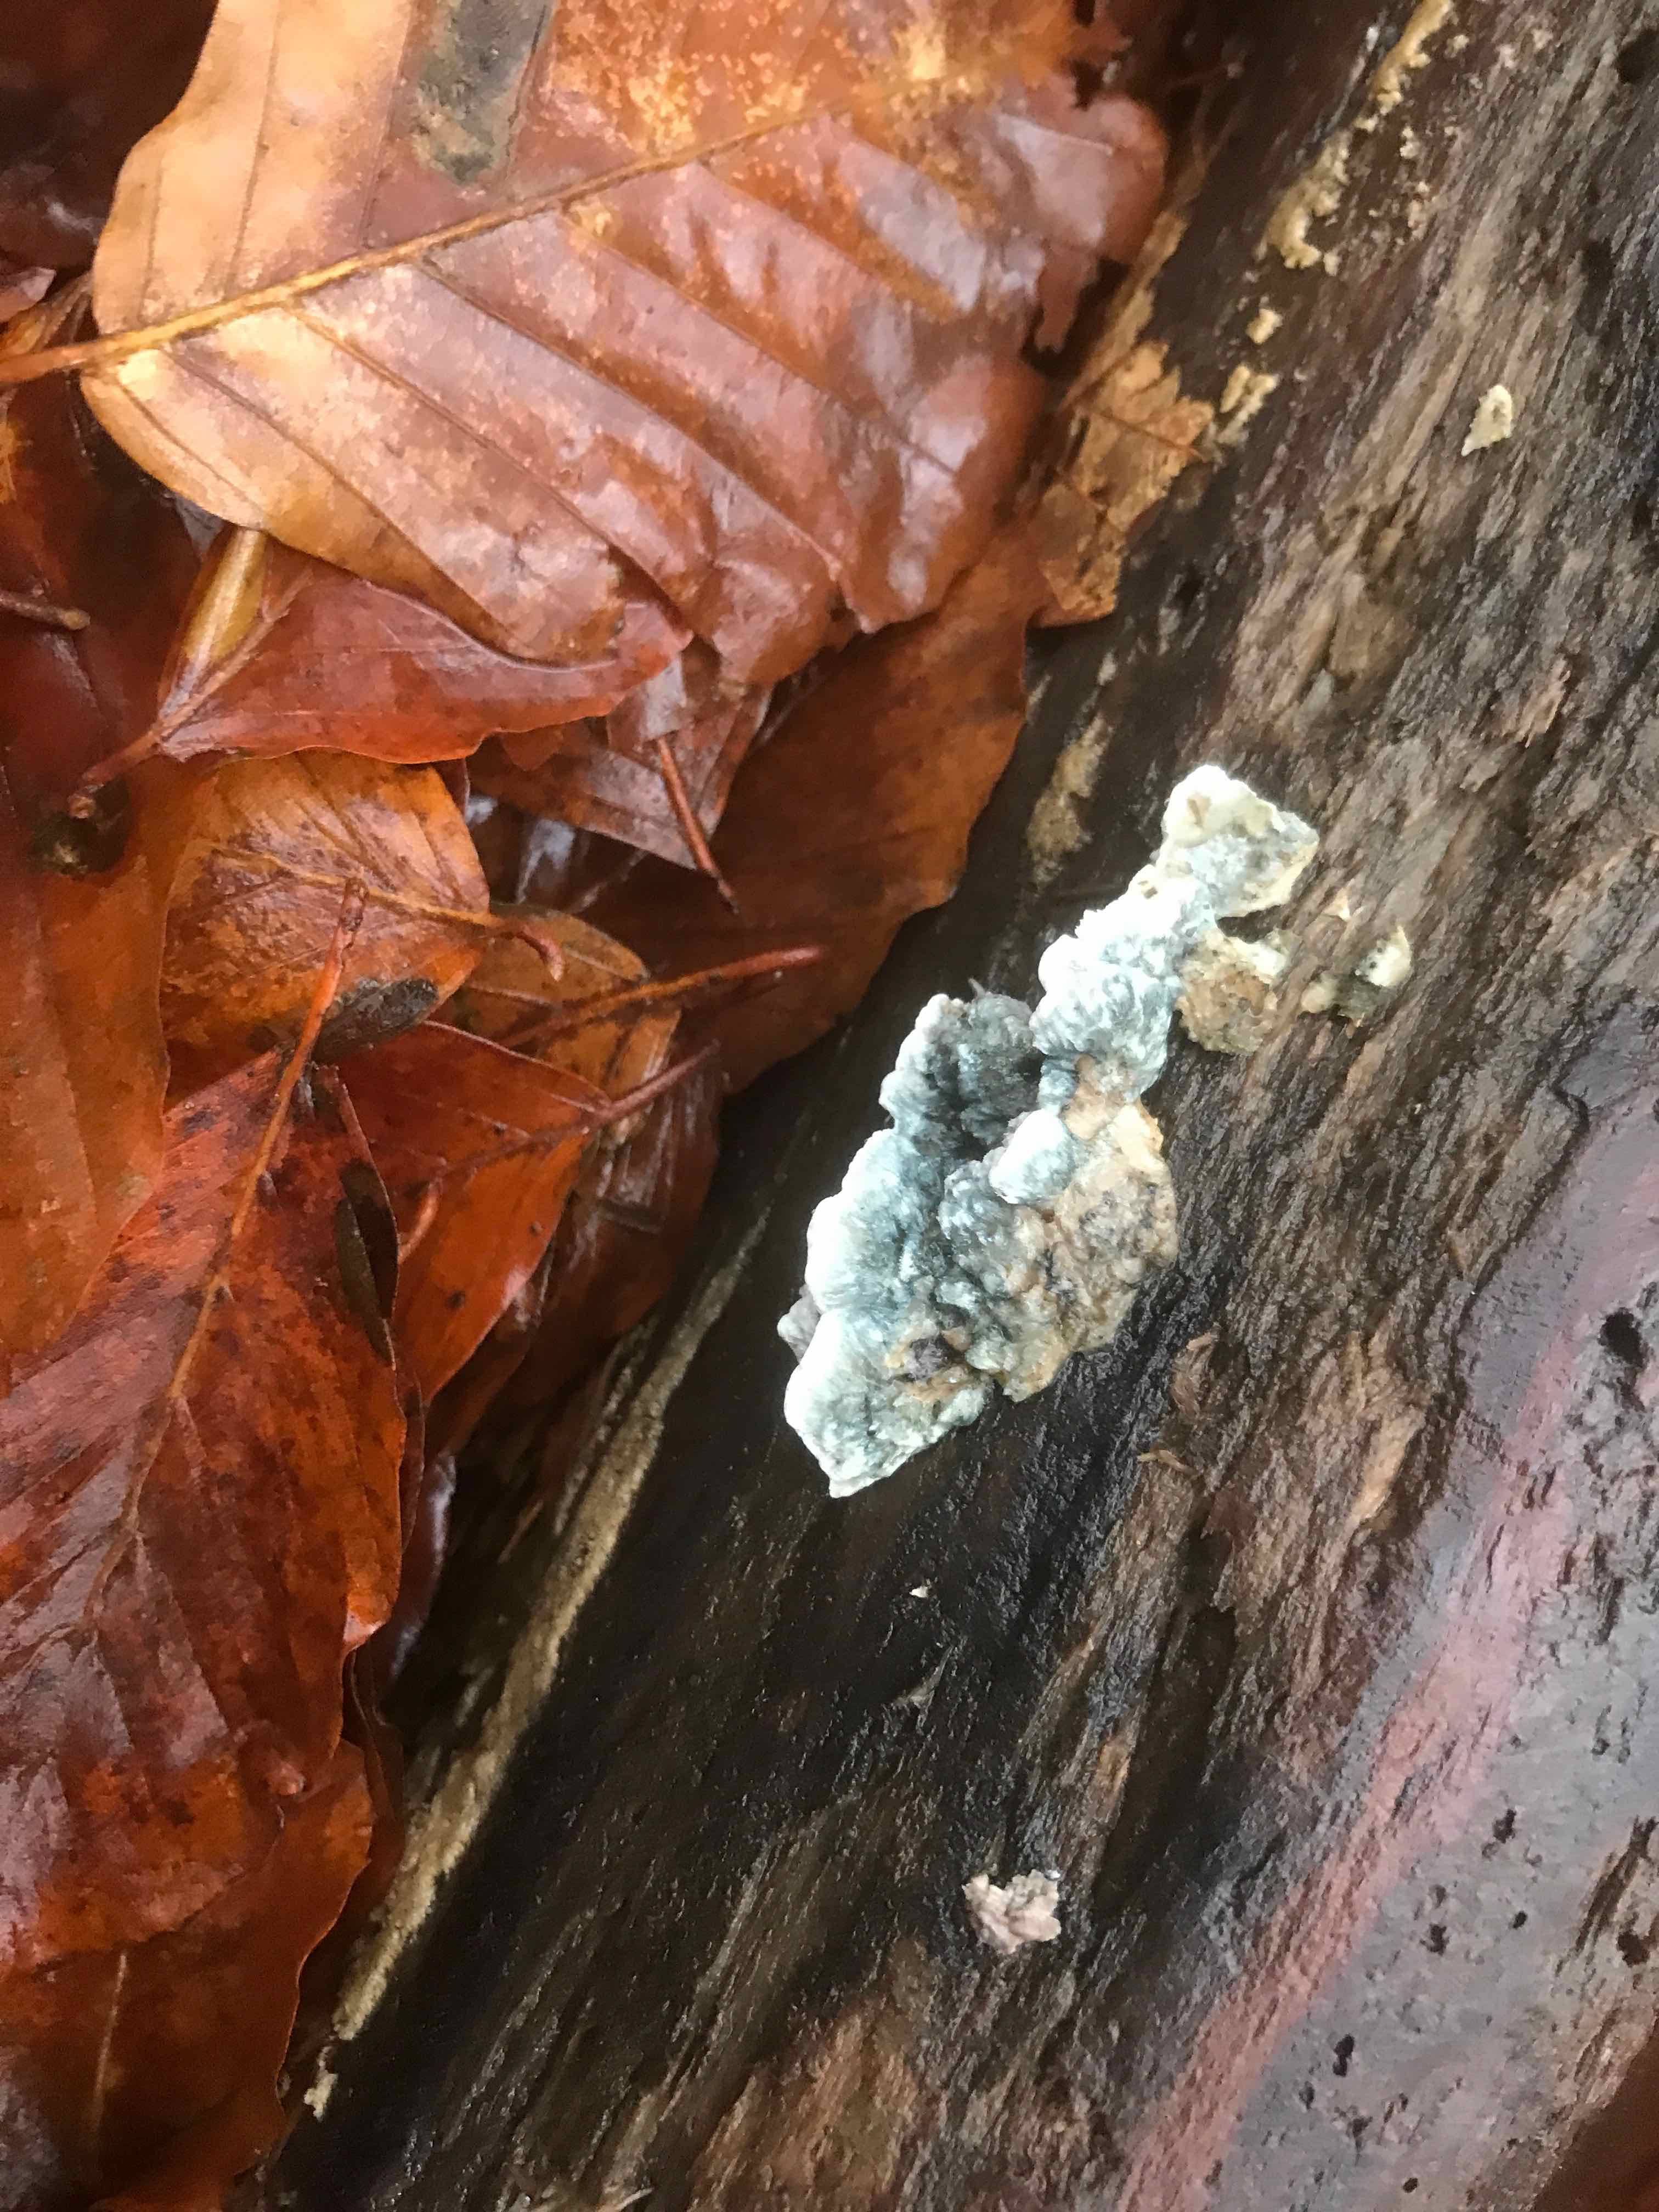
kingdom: Fungi
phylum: Basidiomycota
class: Agaricomycetes
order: Polyporales
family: Polyporaceae
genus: Cyanosporus
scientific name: Cyanosporus alni
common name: blegblå kødporesvamp
